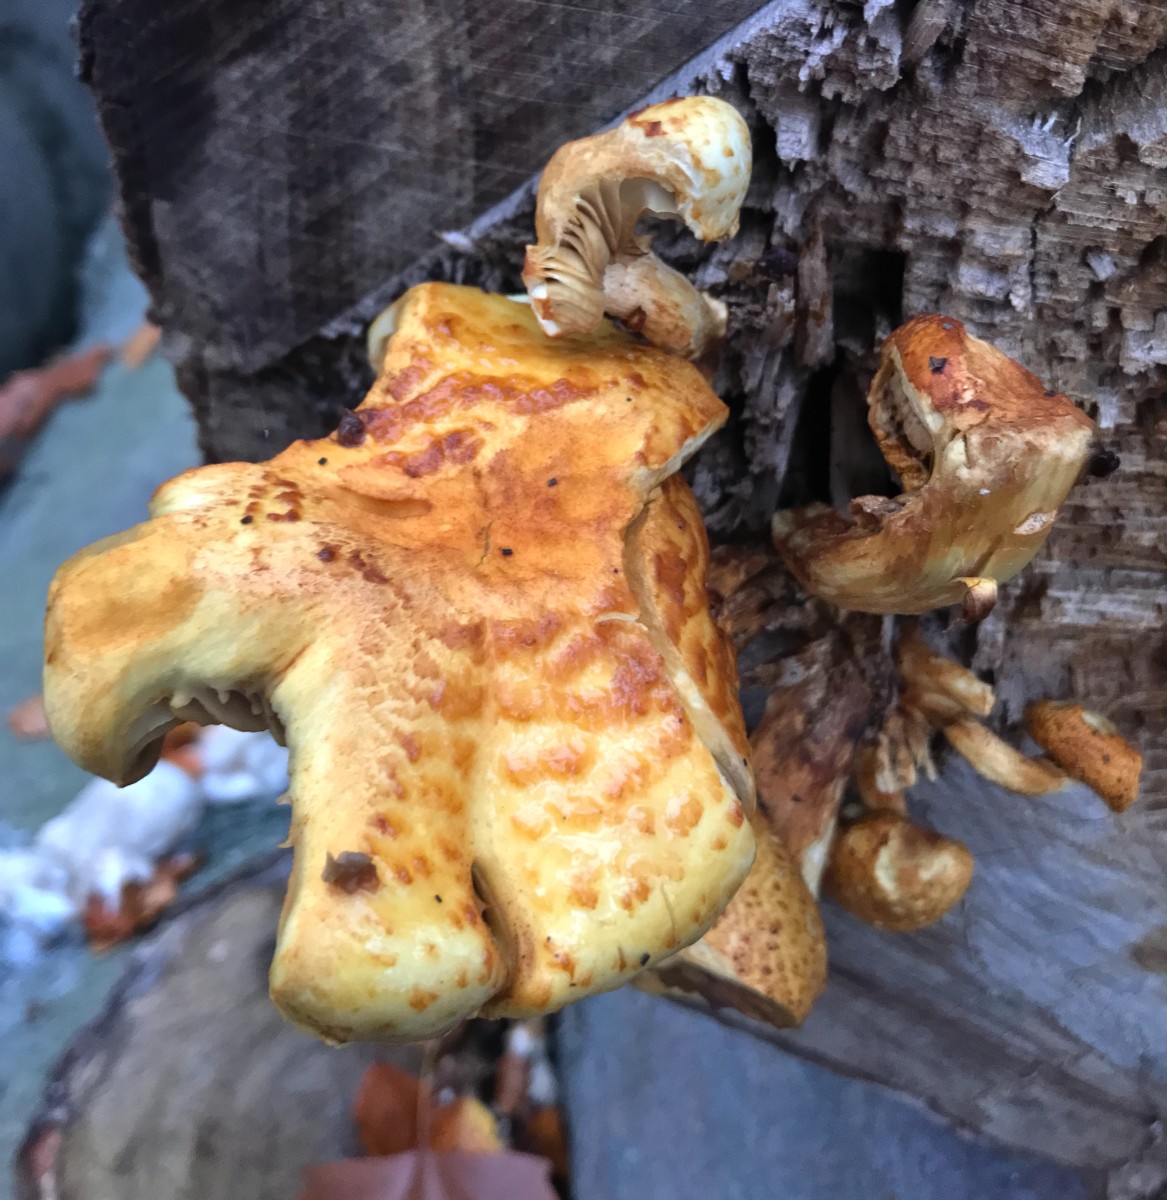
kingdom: Fungi
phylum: Basidiomycota
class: Agaricomycetes
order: Agaricales
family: Strophariaceae
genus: Pholiota
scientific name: Pholiota adiposa
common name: højtsiddende skælhat
